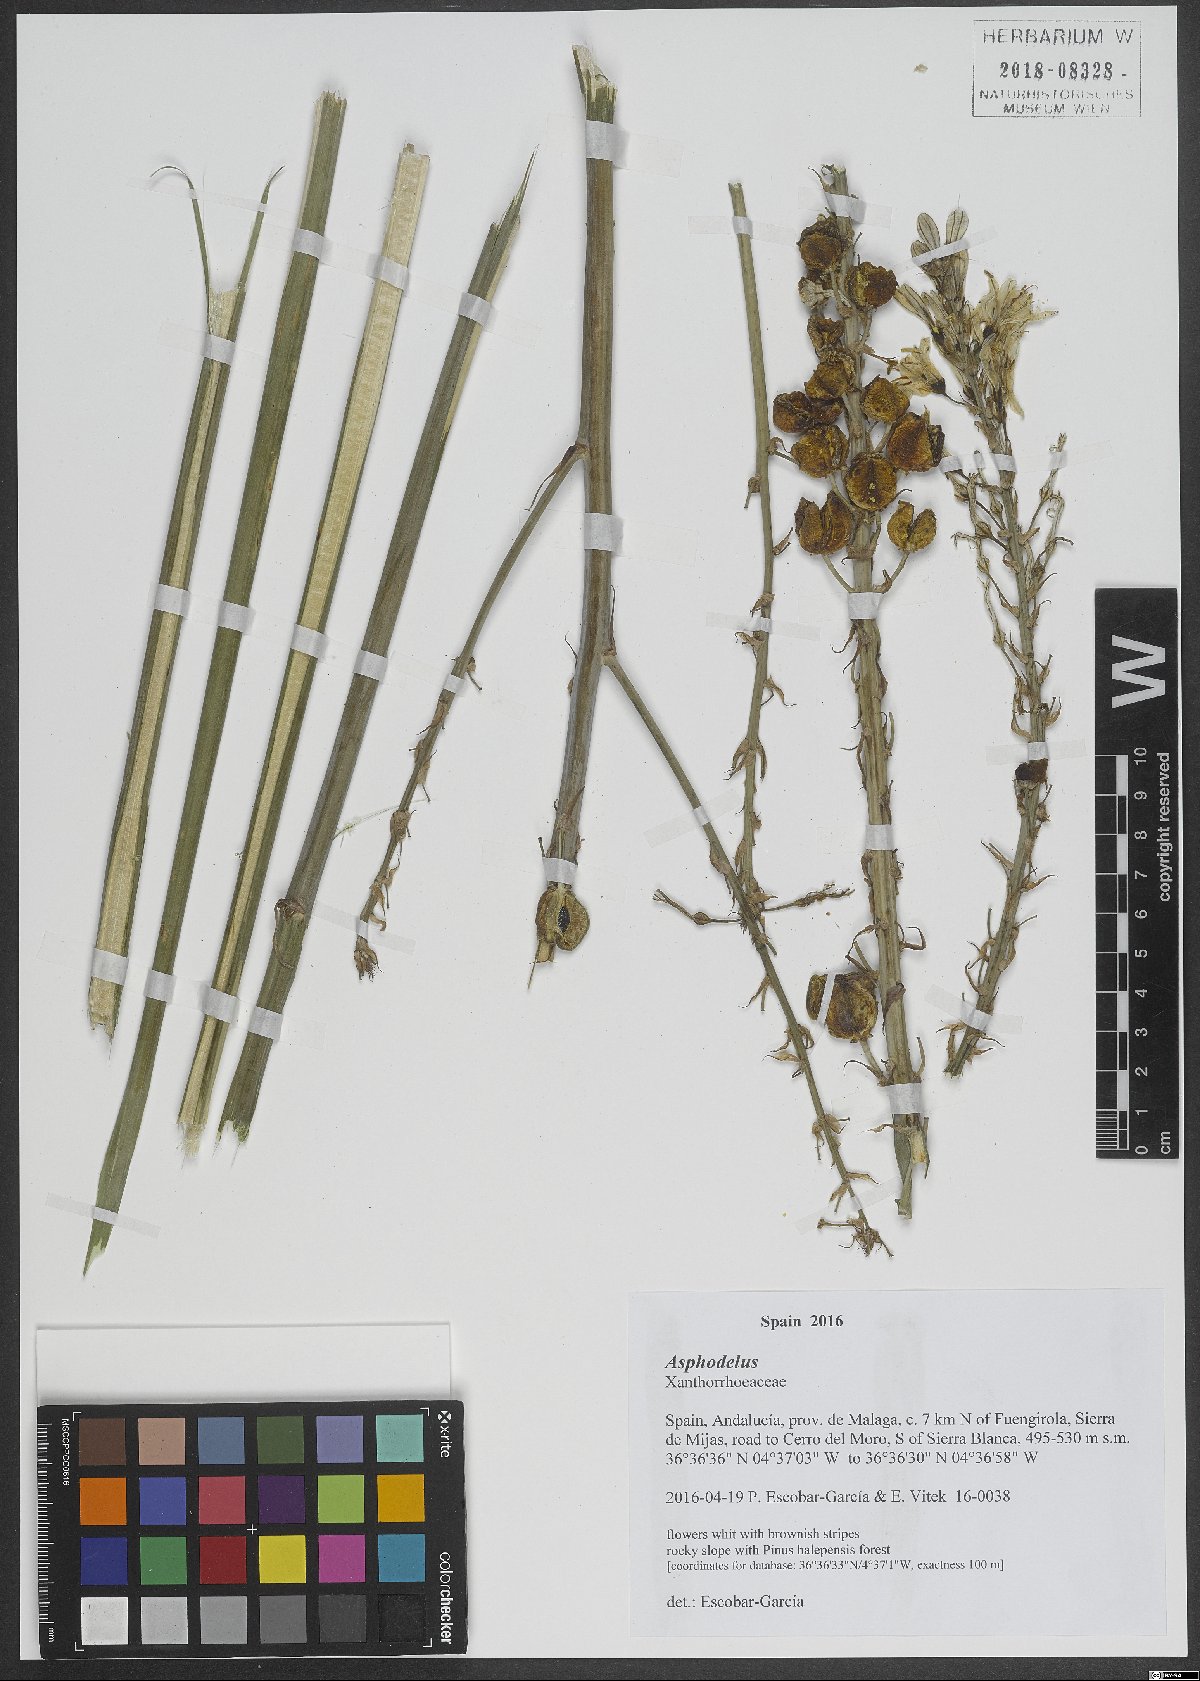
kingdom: Plantae
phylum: Tracheophyta
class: Liliopsida
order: Asparagales
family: Asphodelaceae
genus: Asphodelus
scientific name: Asphodelus
